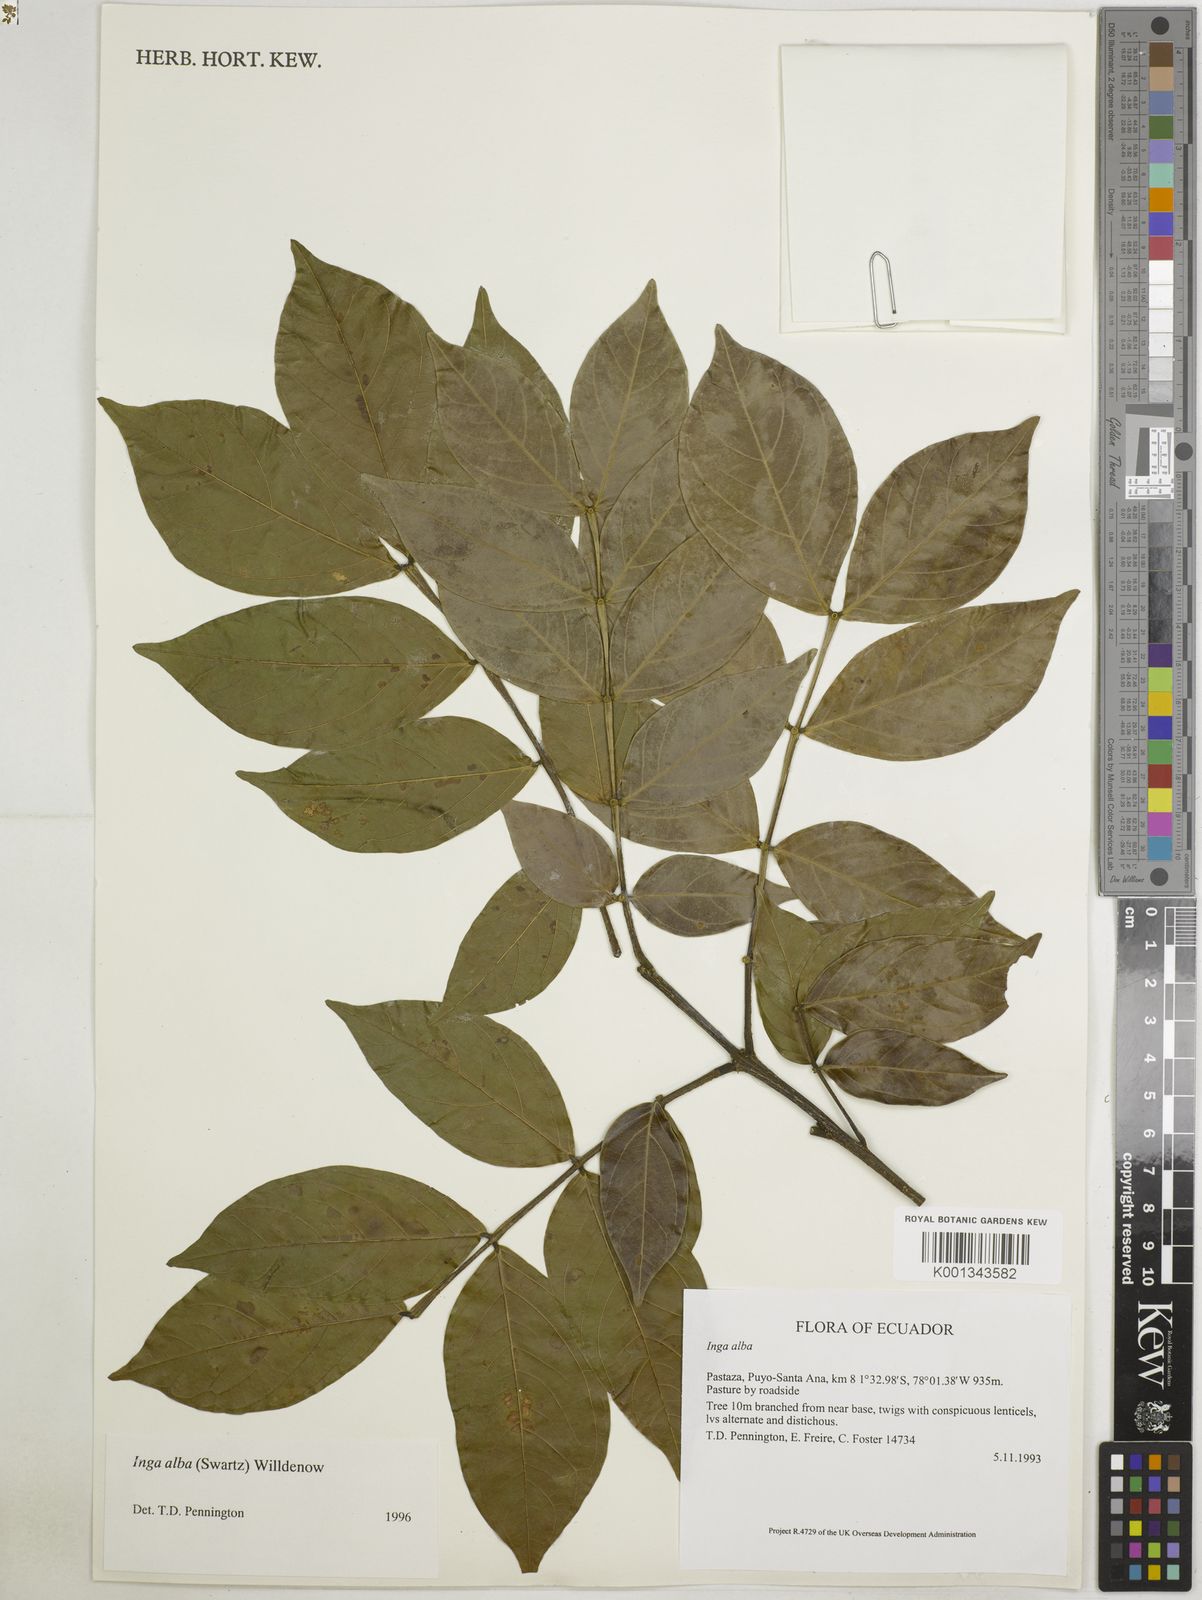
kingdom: Plantae
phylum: Tracheophyta
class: Magnoliopsida
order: Fabales
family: Fabaceae
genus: Inga
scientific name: Inga alba
